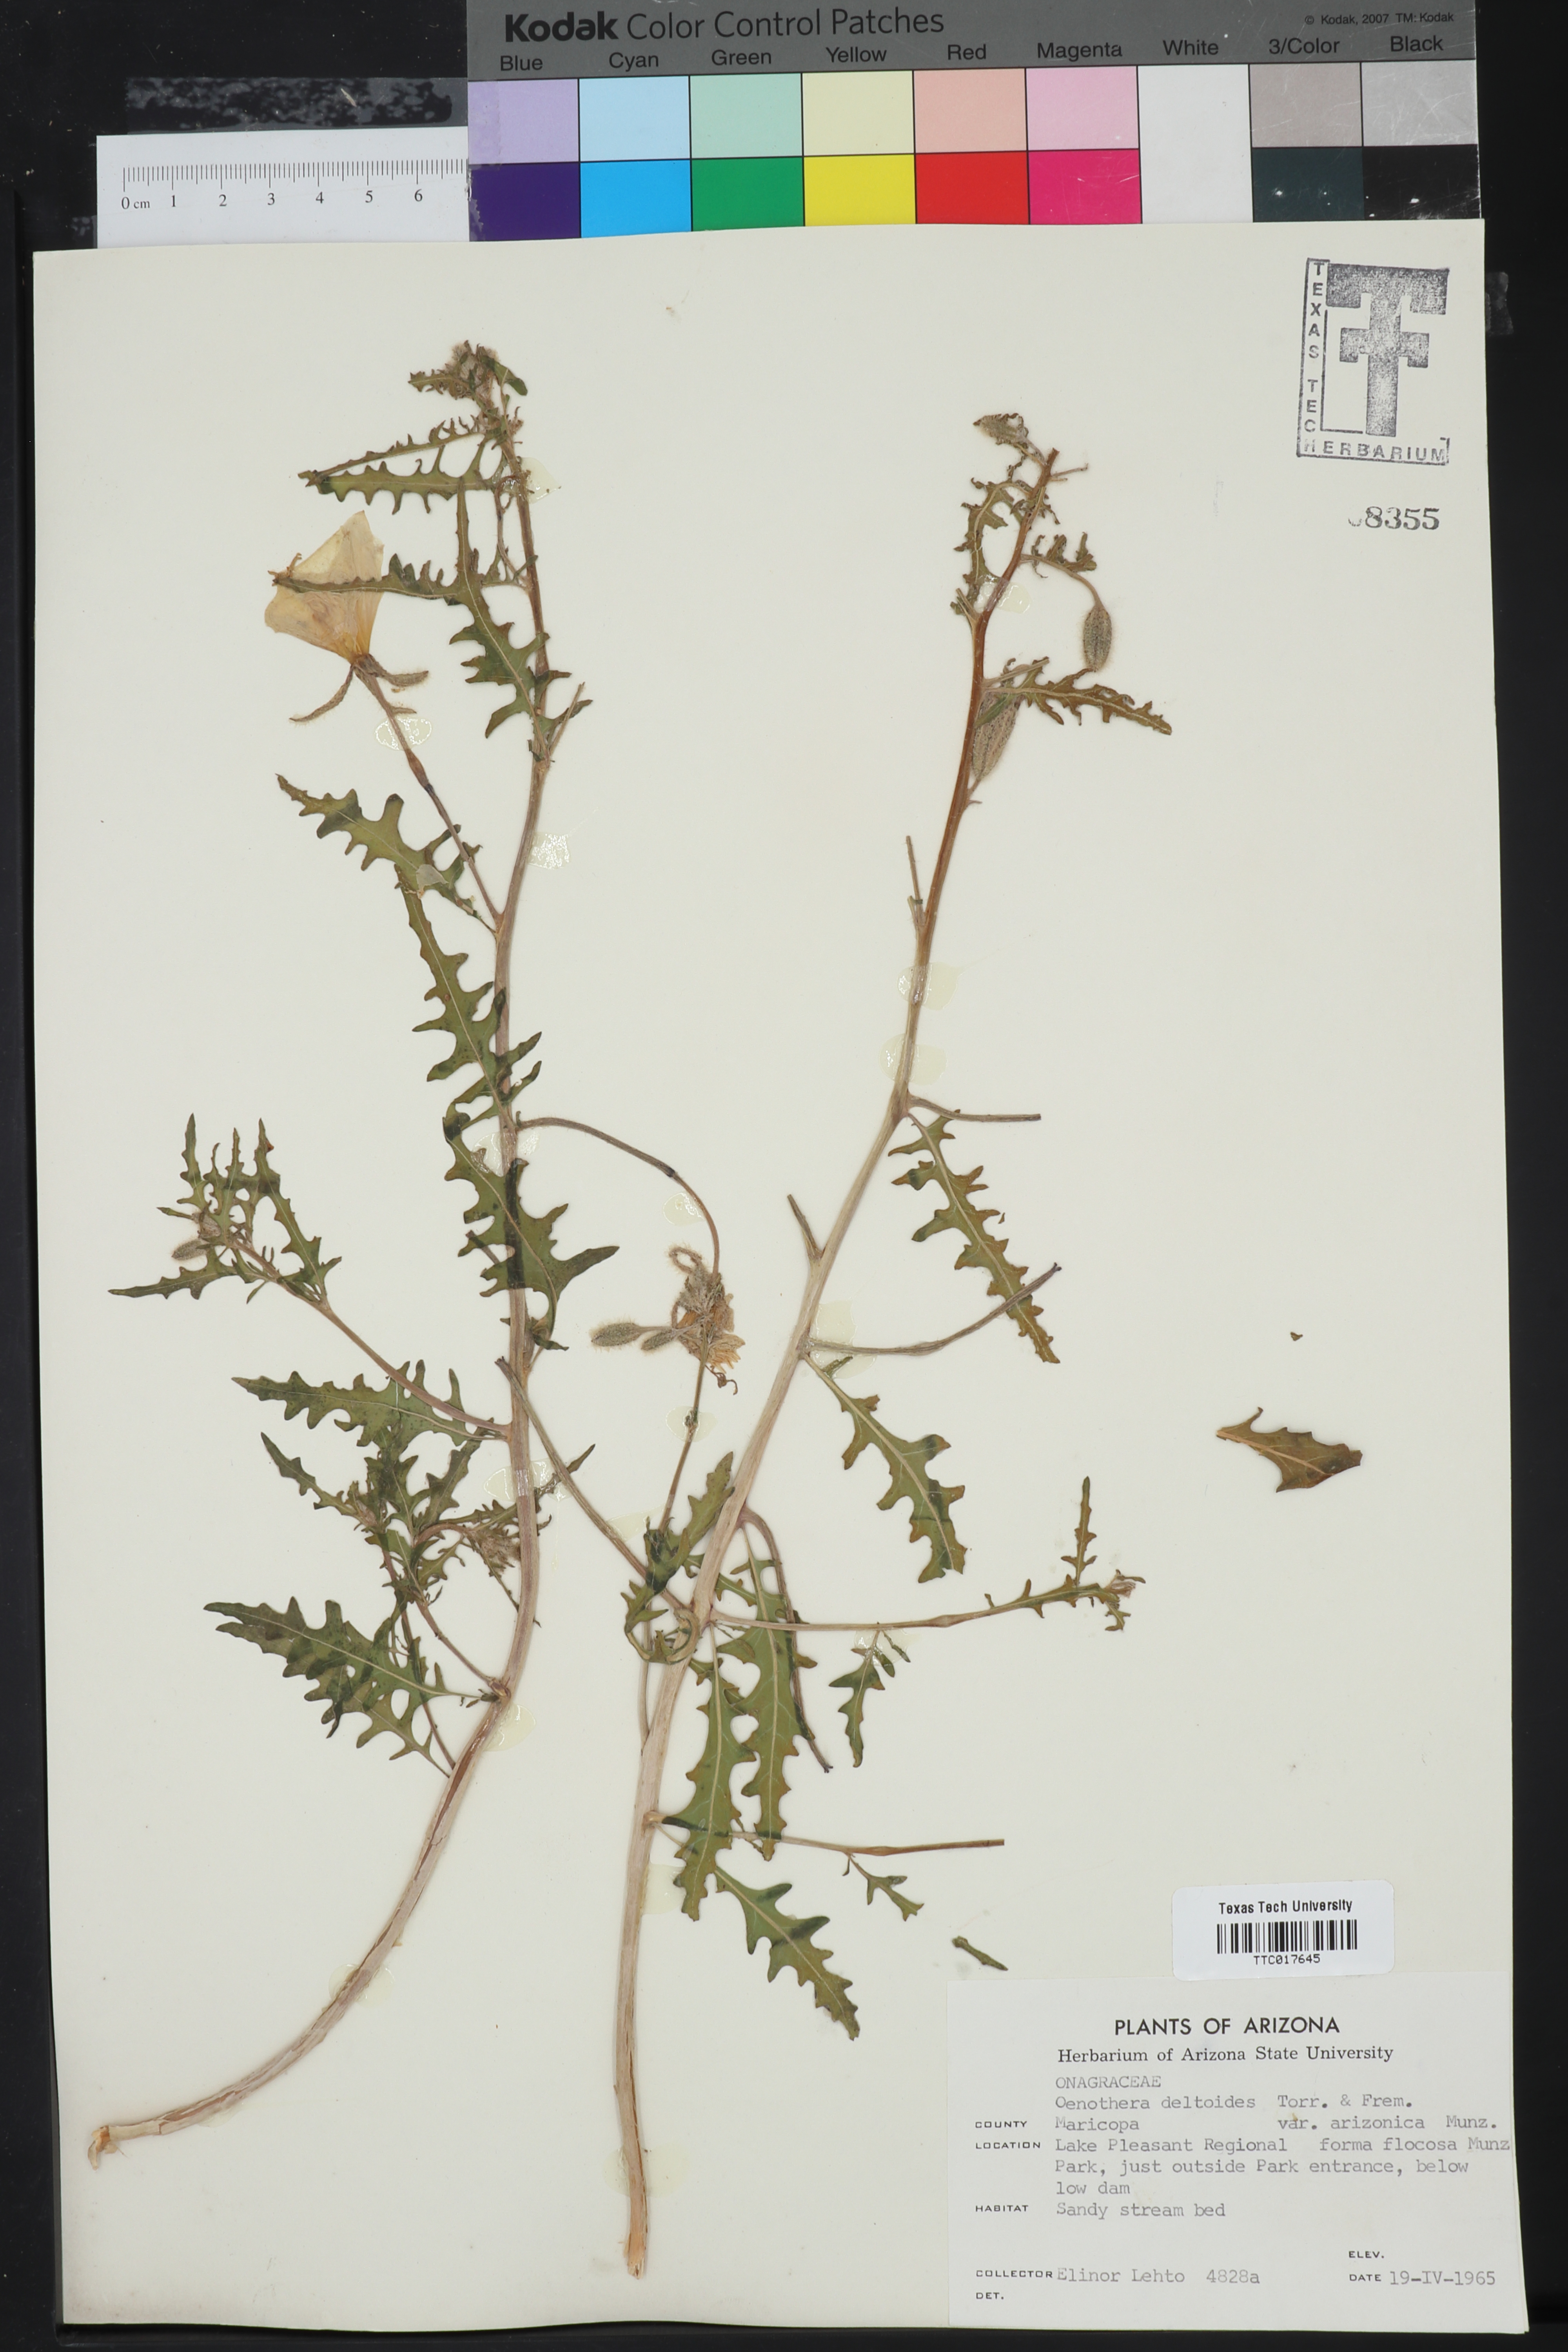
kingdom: Plantae
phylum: Tracheophyta
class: Magnoliopsida
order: Myrtales
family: Onagraceae
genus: Oenothera
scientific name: Oenothera deltoides
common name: Basket evening-primrose
